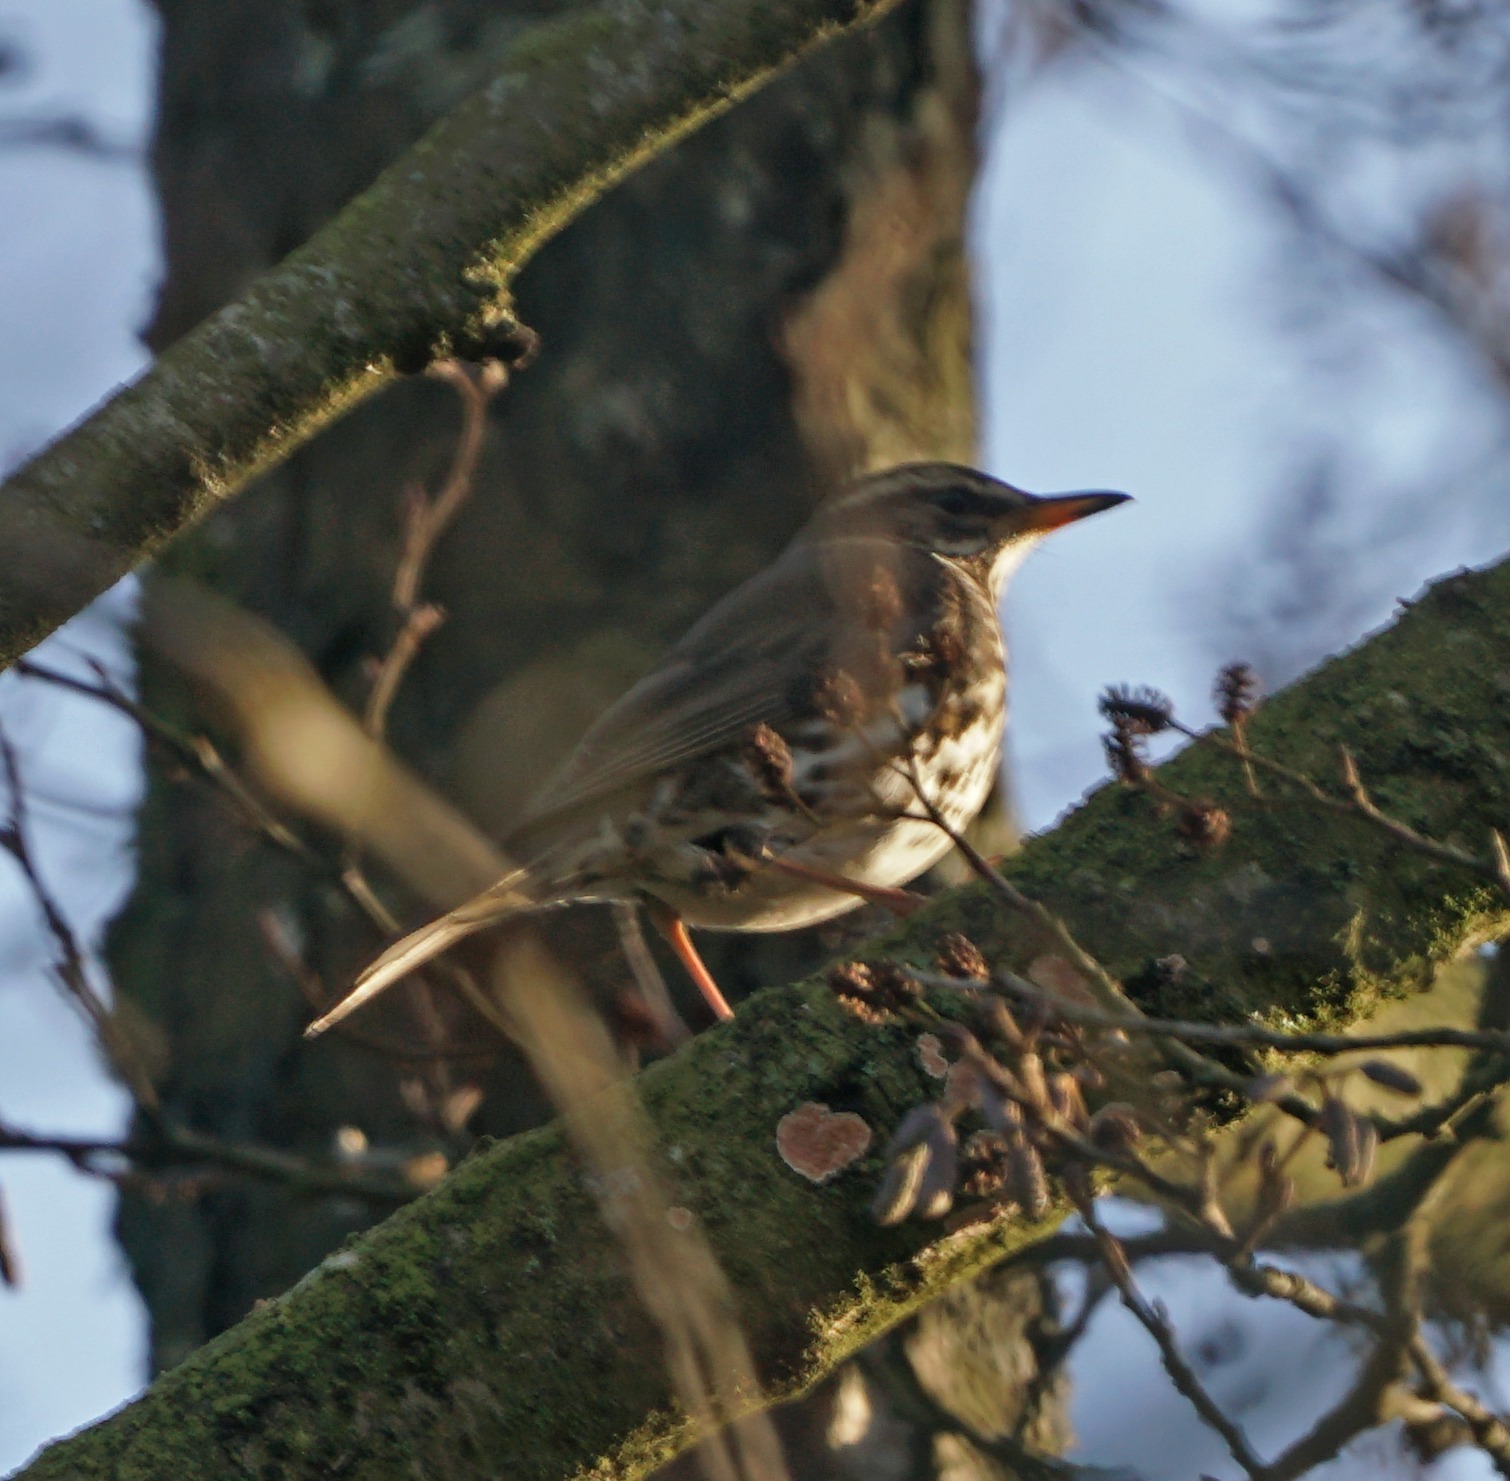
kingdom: Animalia
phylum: Chordata
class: Aves
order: Passeriformes
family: Turdidae
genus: Turdus
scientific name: Turdus iliacus
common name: Vindrossel
